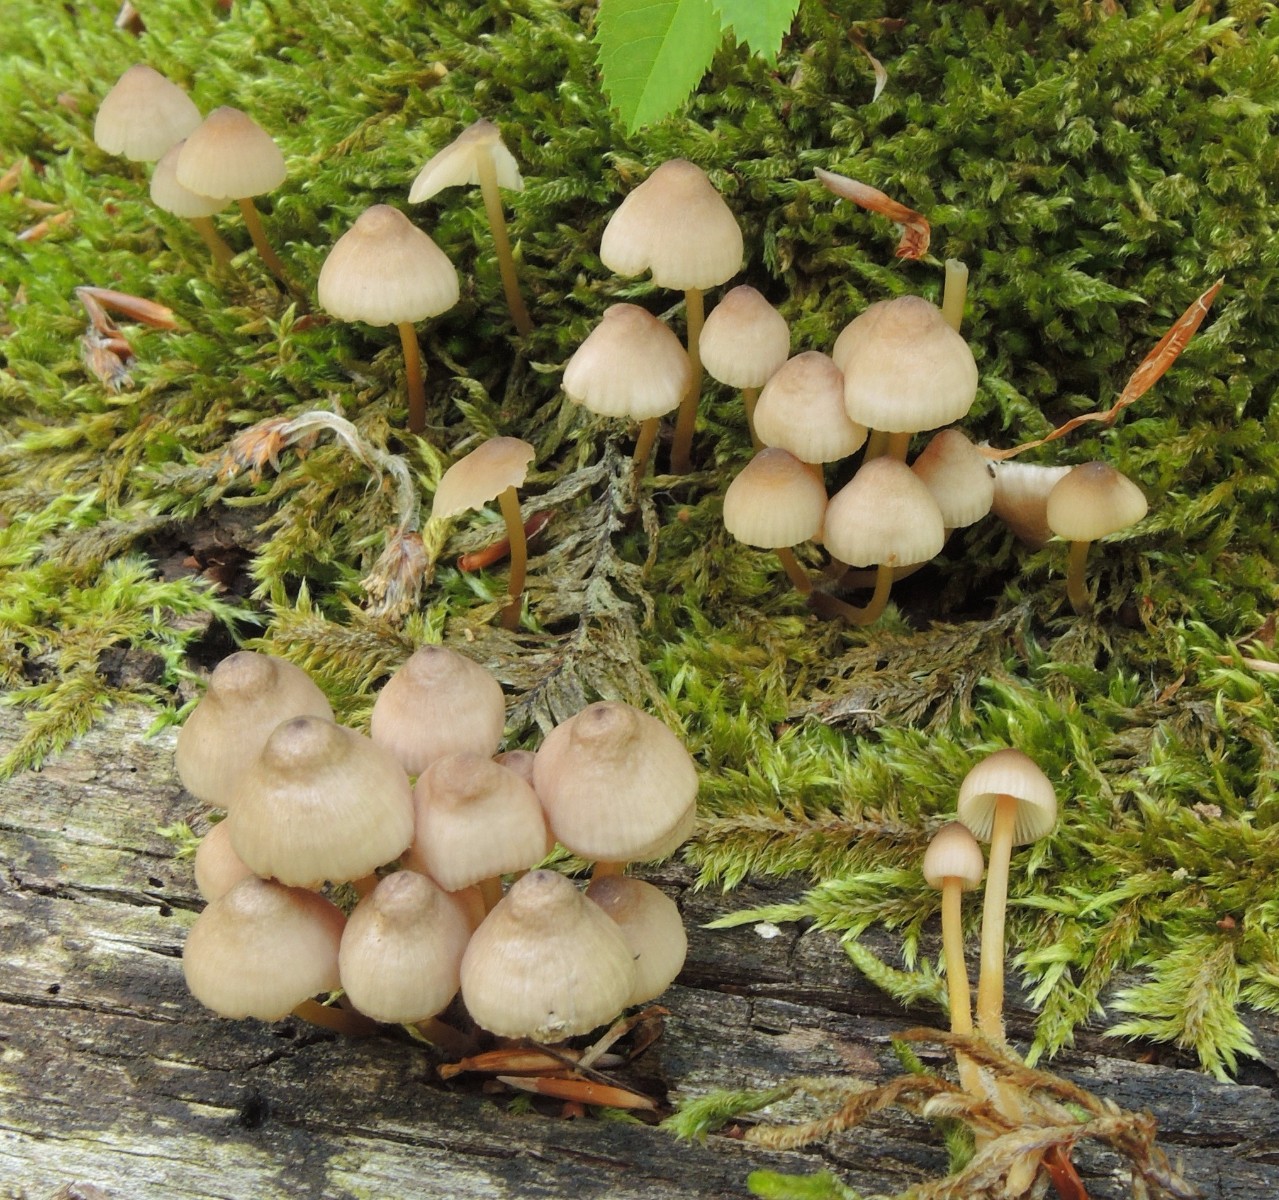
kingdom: Fungi
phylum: Basidiomycota
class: Agaricomycetes
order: Agaricales
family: Mycenaceae
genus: Mycena
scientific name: Mycena renati
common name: smuk huesvamp
